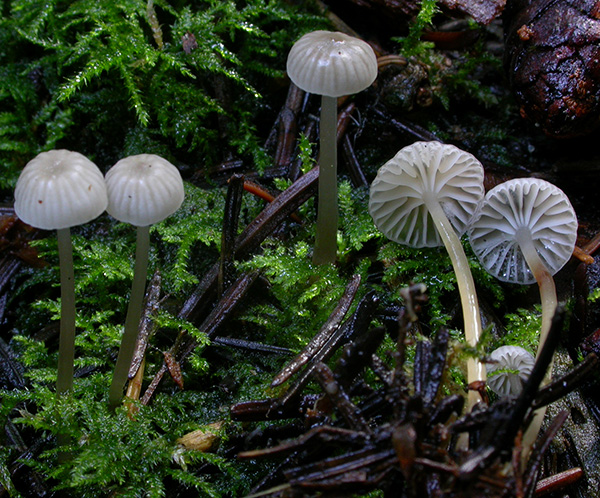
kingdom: Fungi
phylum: Basidiomycota
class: Agaricomycetes
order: Agaricales
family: Mycenaceae
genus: Mycena
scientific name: Mycena vulgaris
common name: klæbrig huesvamp
